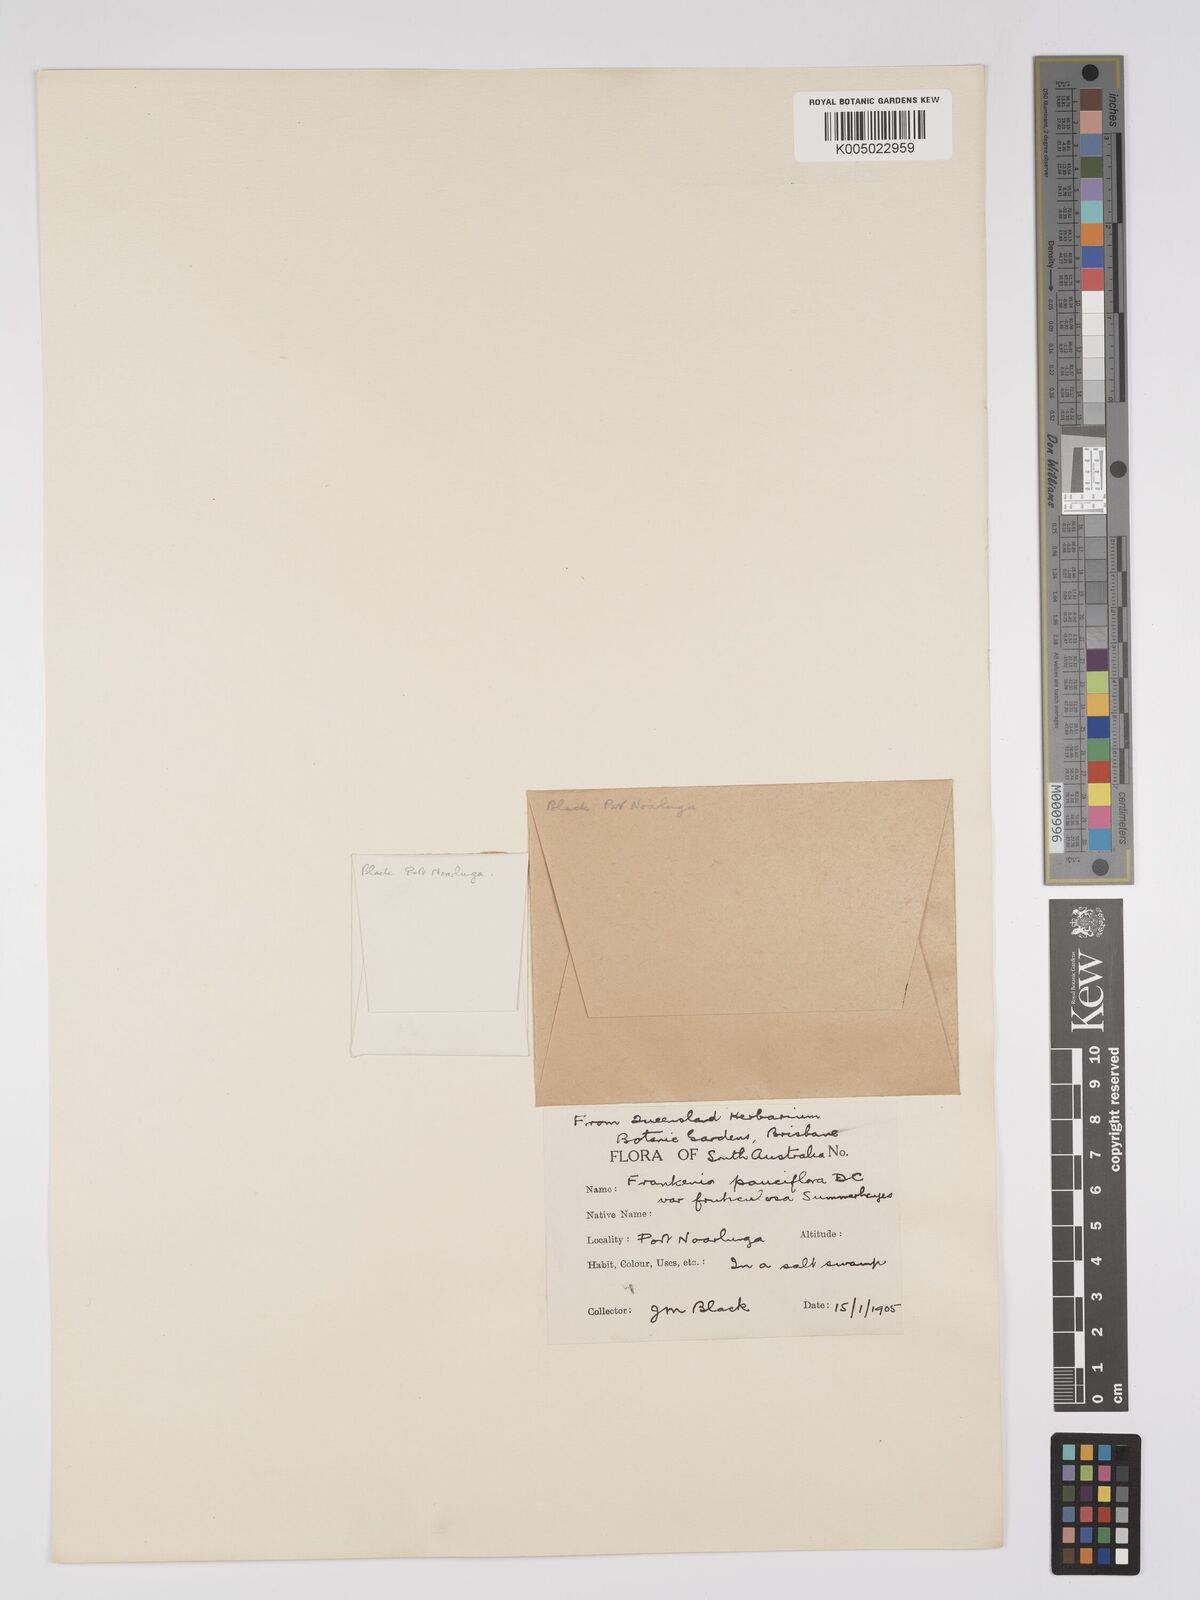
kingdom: Plantae
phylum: Tracheophyta
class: Magnoliopsida
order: Caryophyllales
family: Frankeniaceae
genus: Frankenia
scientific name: Frankenia pauciflora
